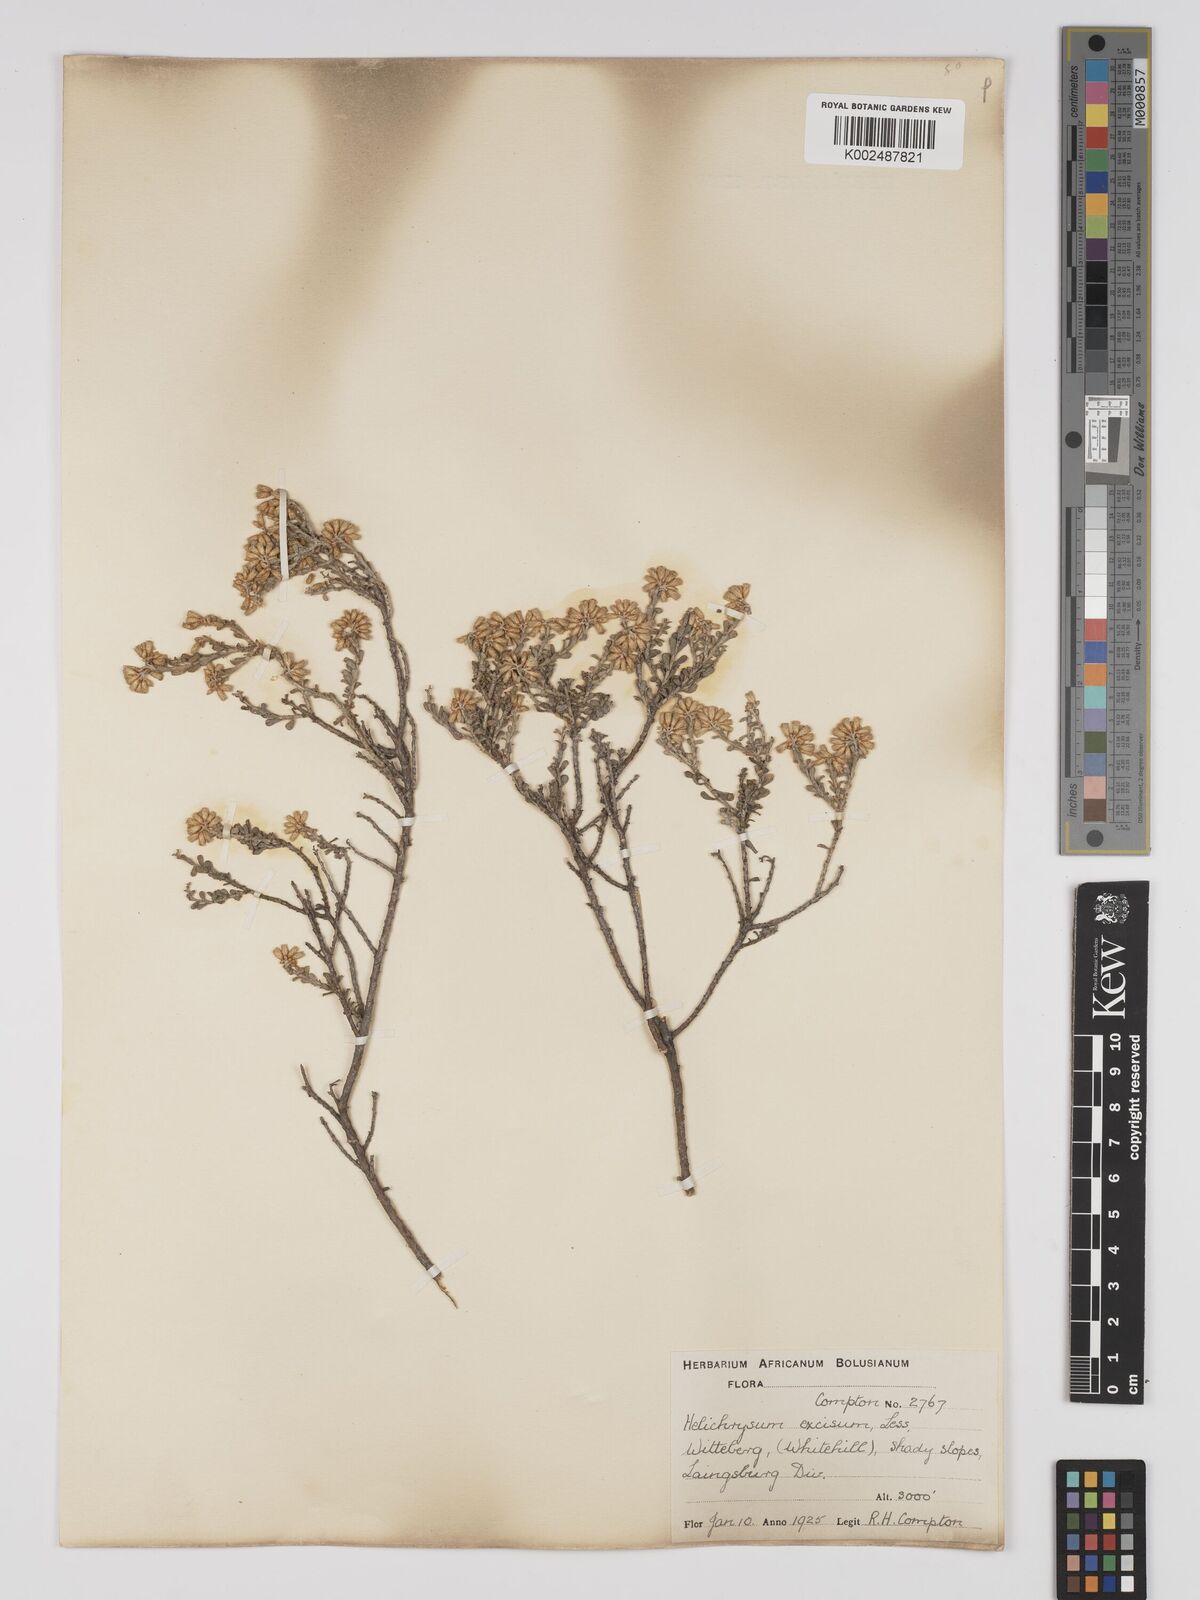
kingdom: Plantae
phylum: Tracheophyta
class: Magnoliopsida
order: Asterales
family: Asteraceae
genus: Helichrysum
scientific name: Helichrysum excisum
